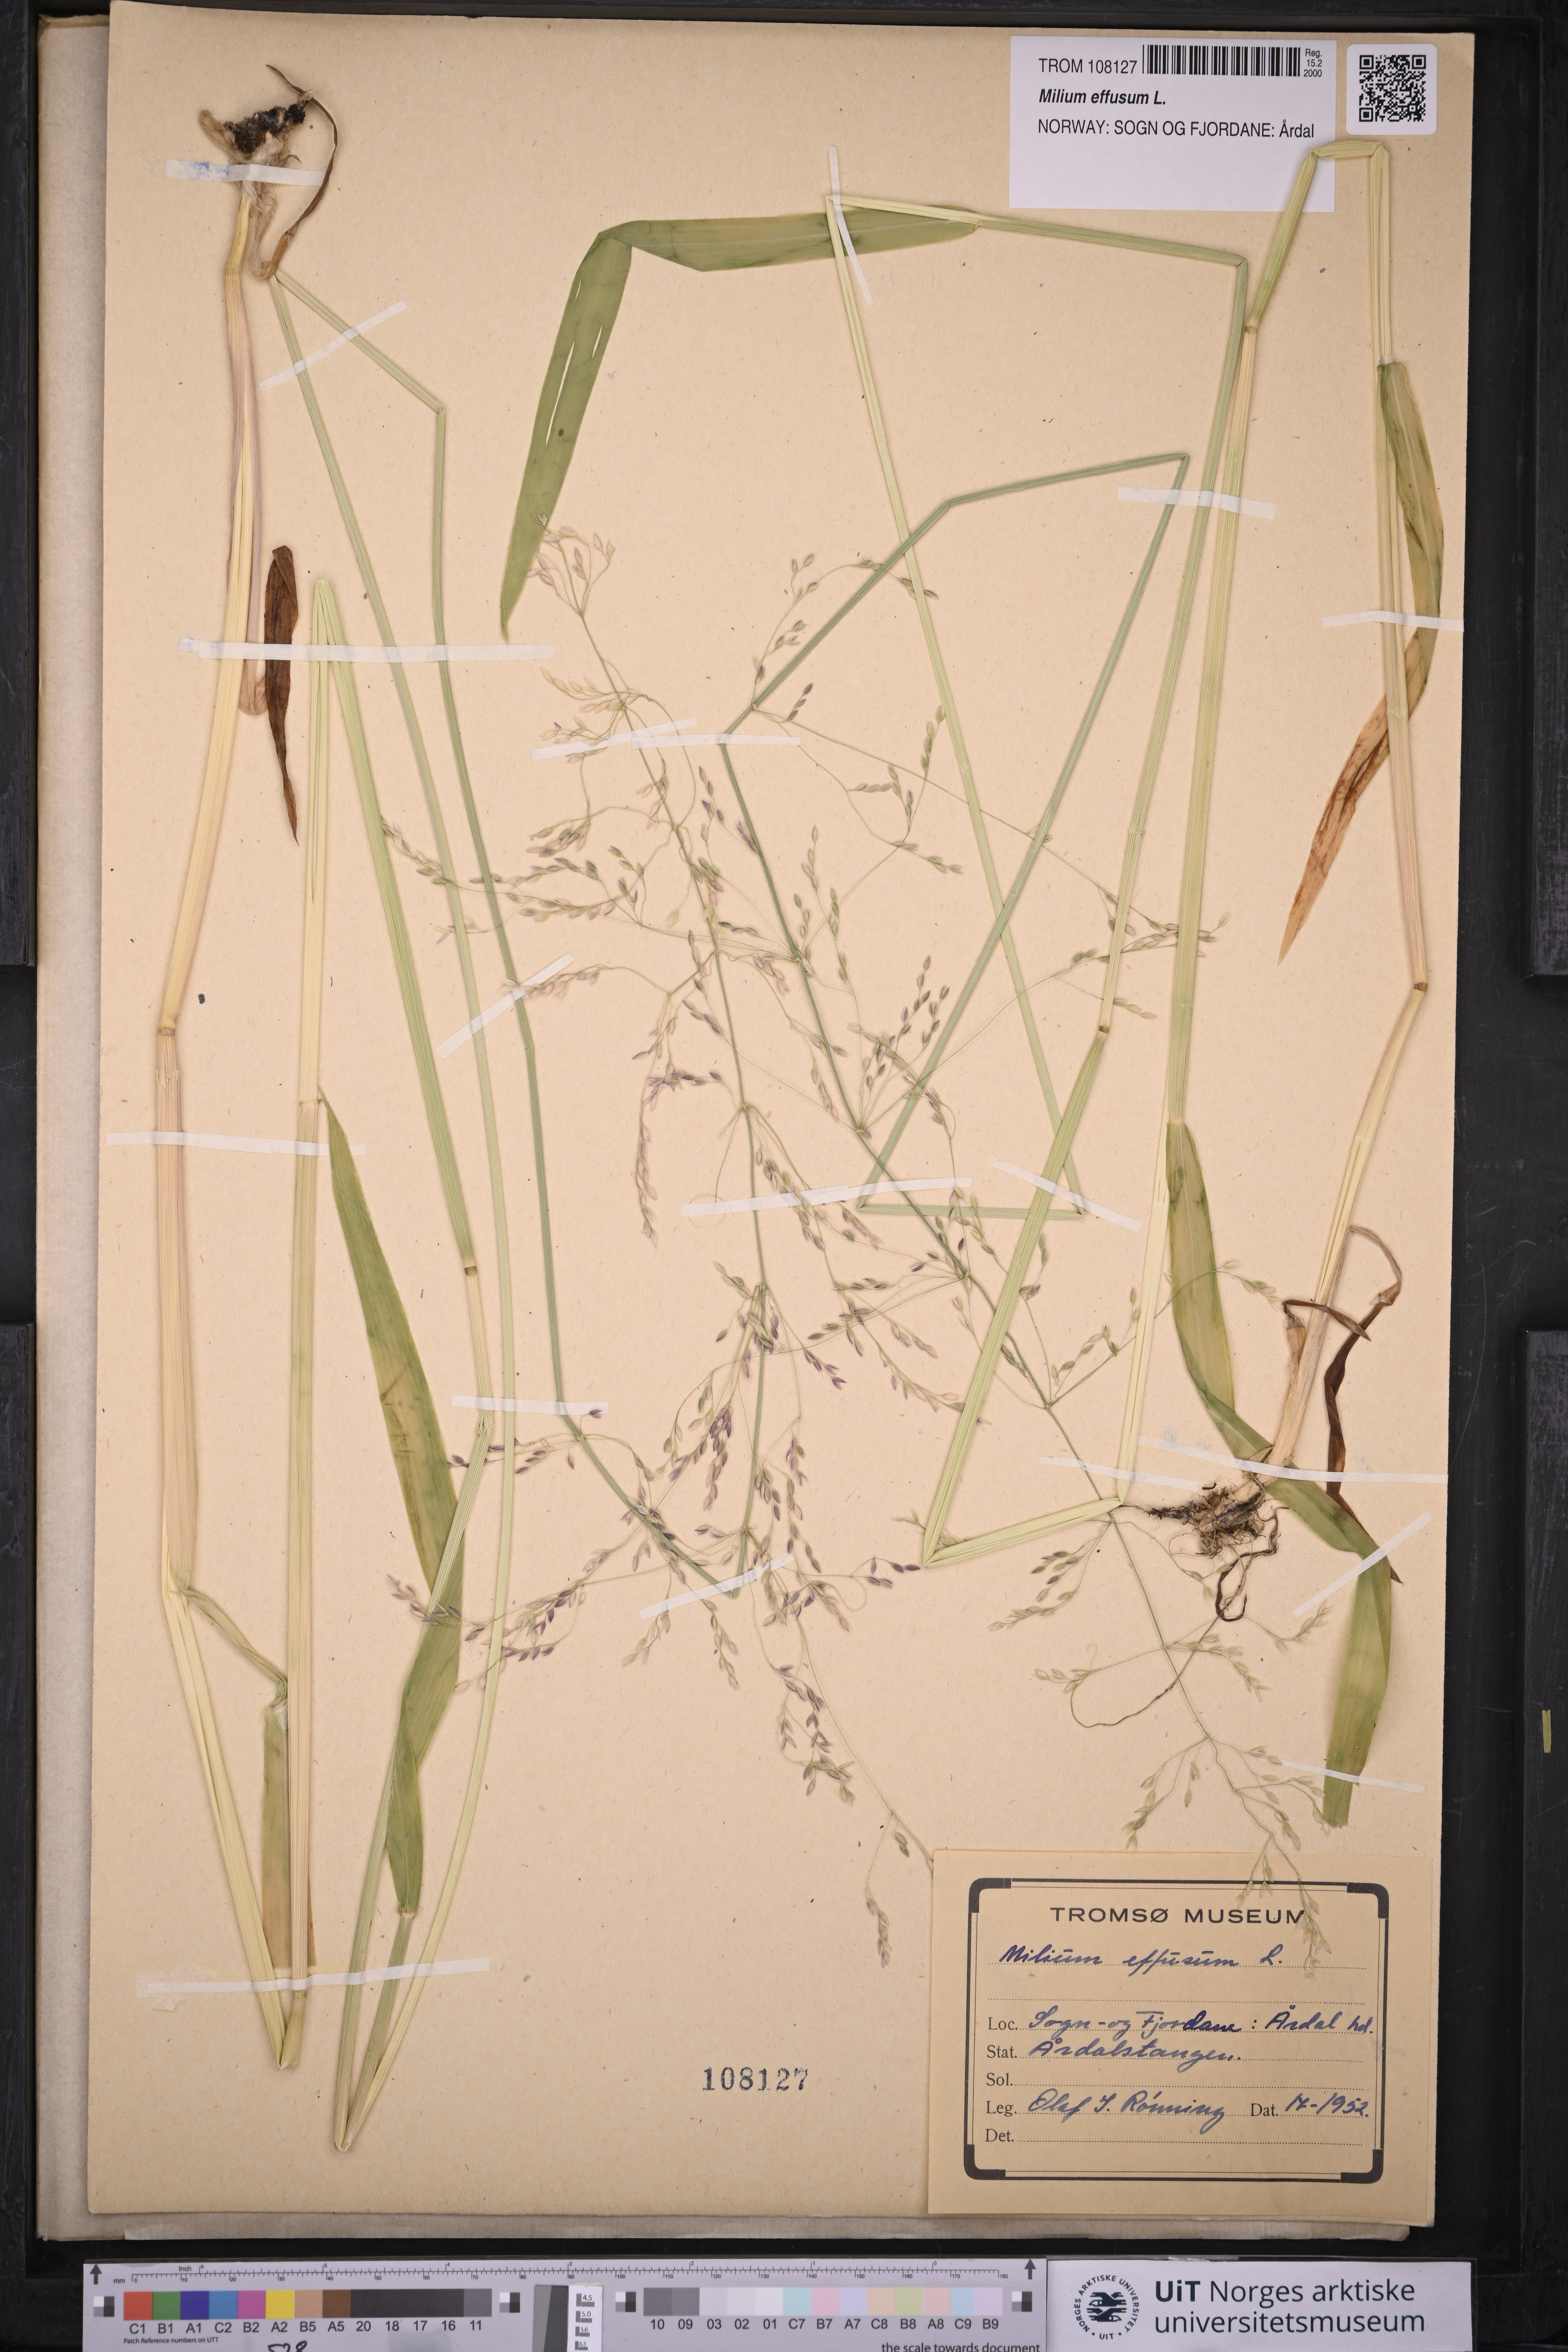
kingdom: Plantae
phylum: Tracheophyta
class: Liliopsida
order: Poales
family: Poaceae
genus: Milium
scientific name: Milium effusum
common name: Wood millet
